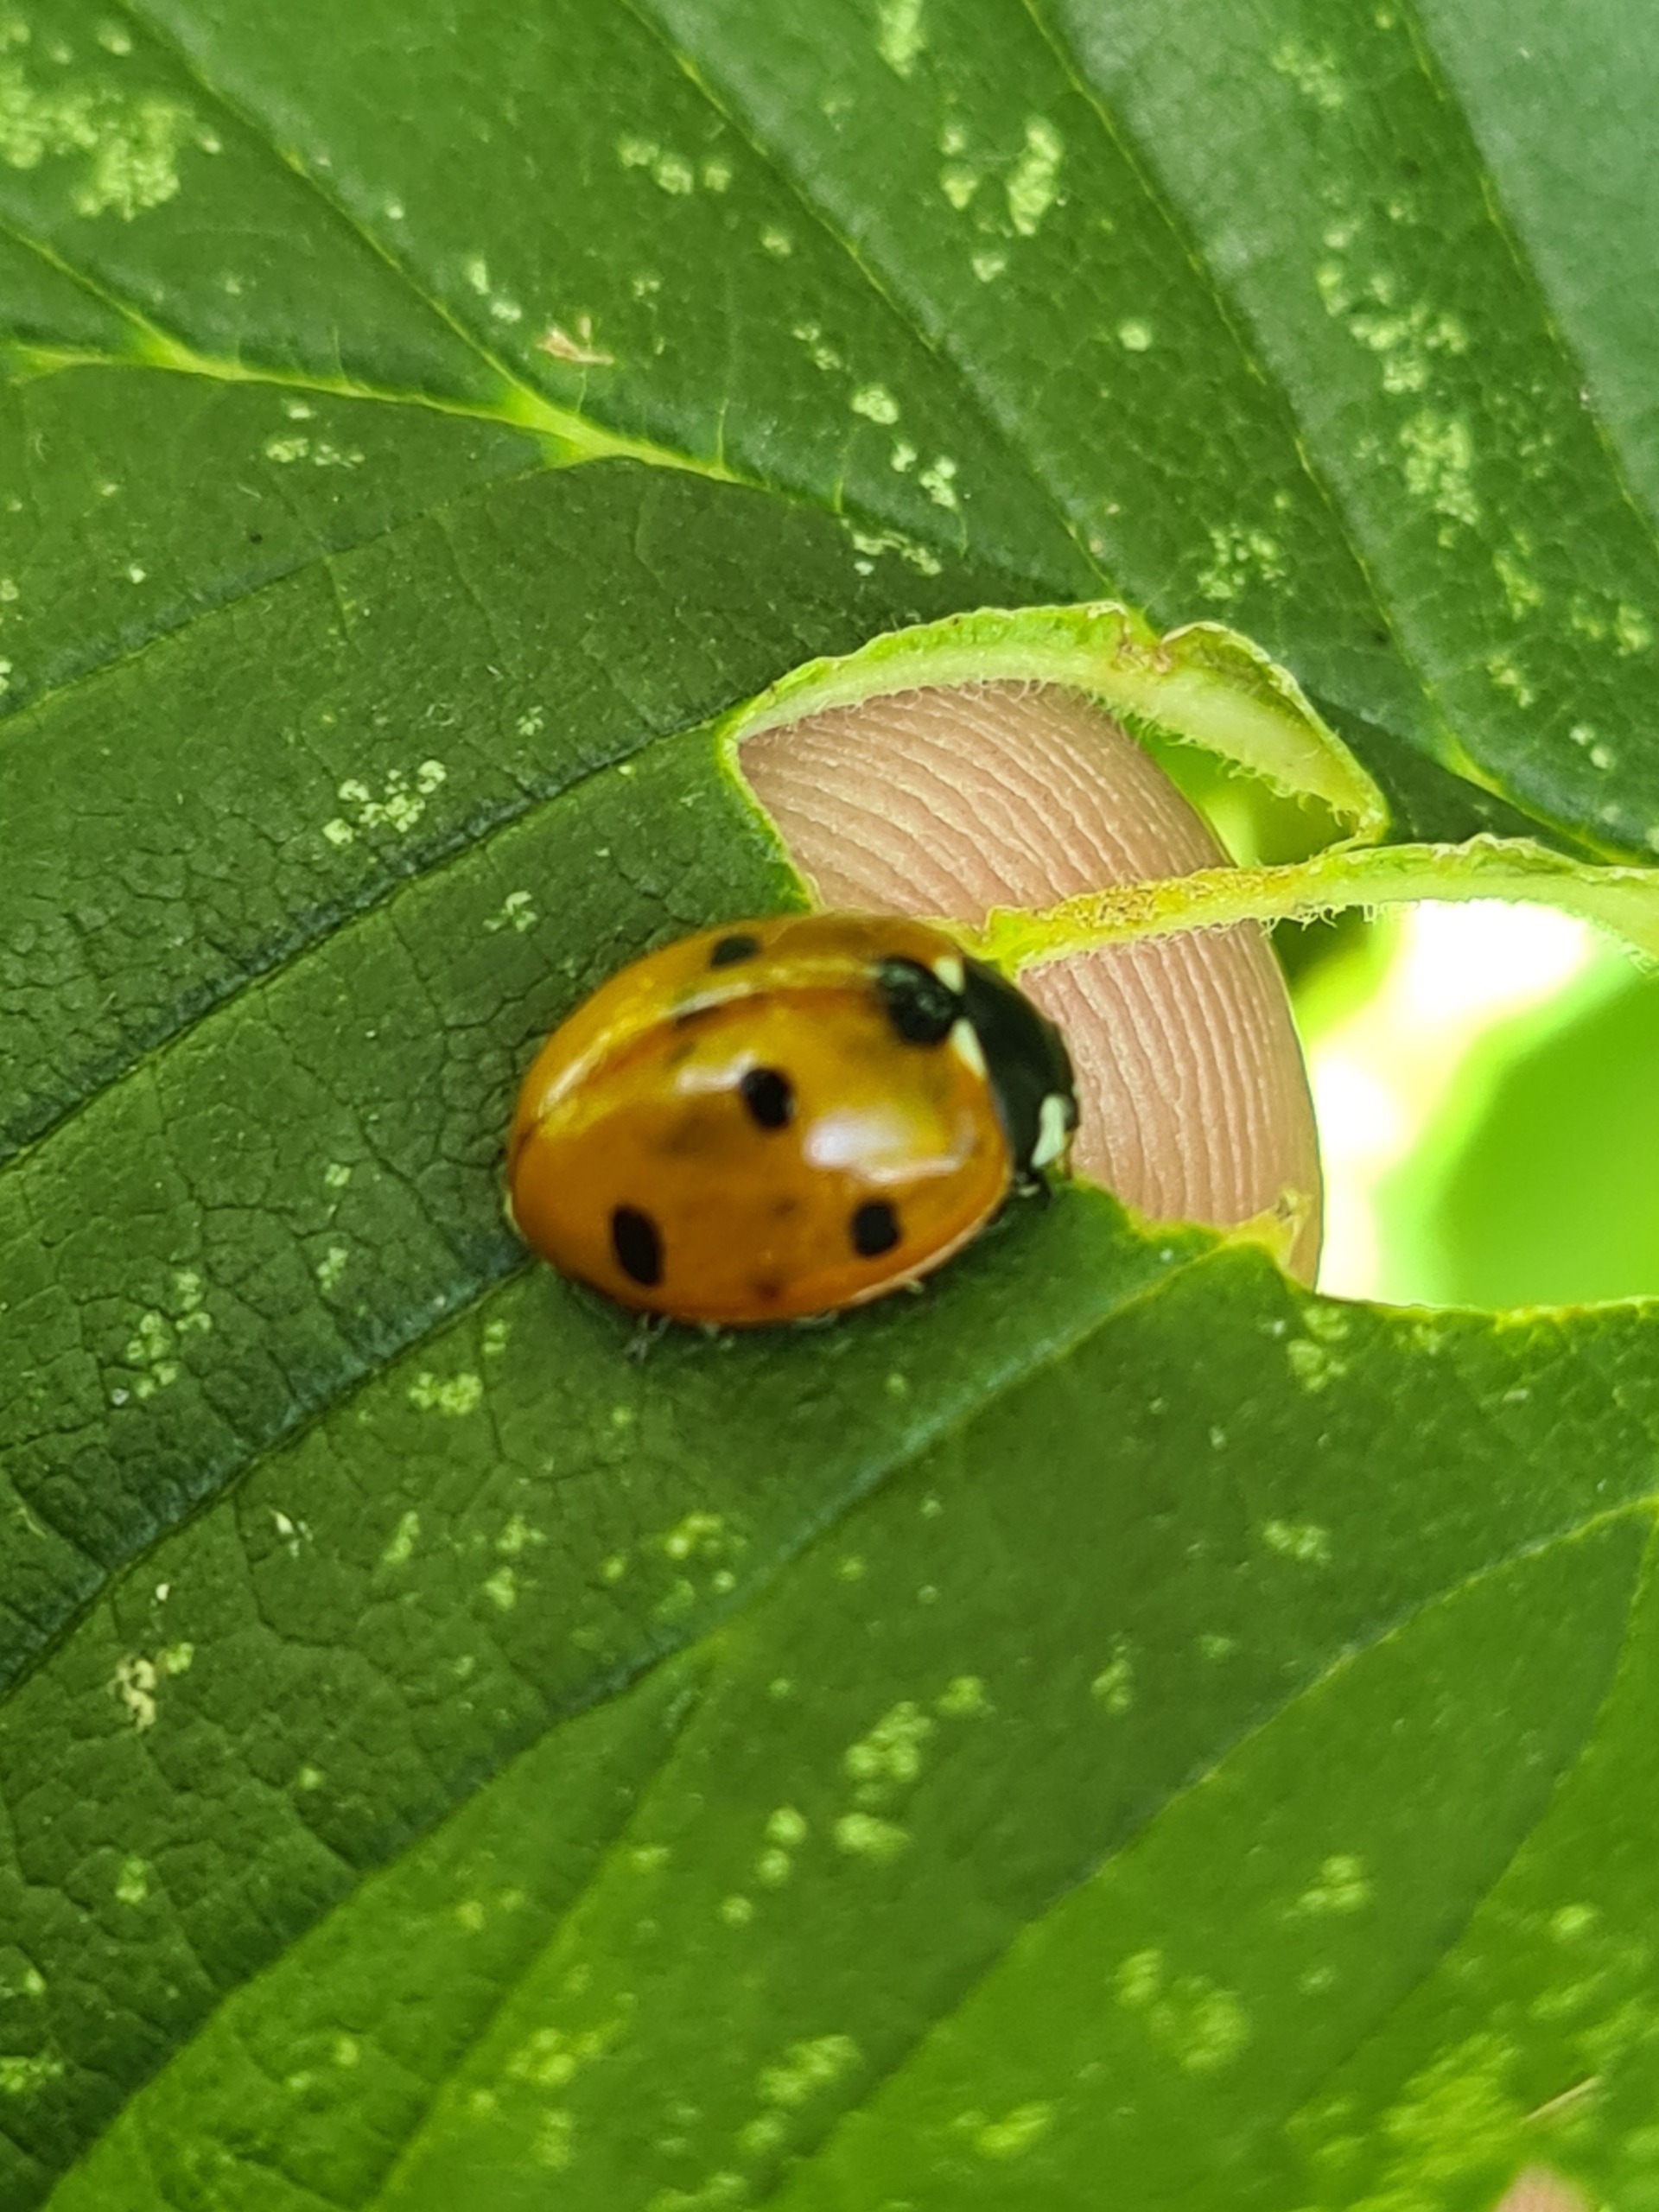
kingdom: Animalia
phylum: Arthropoda
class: Insecta
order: Coleoptera
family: Coccinellidae
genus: Coccinella
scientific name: Coccinella septempunctata
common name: Syvplettet mariehøne
